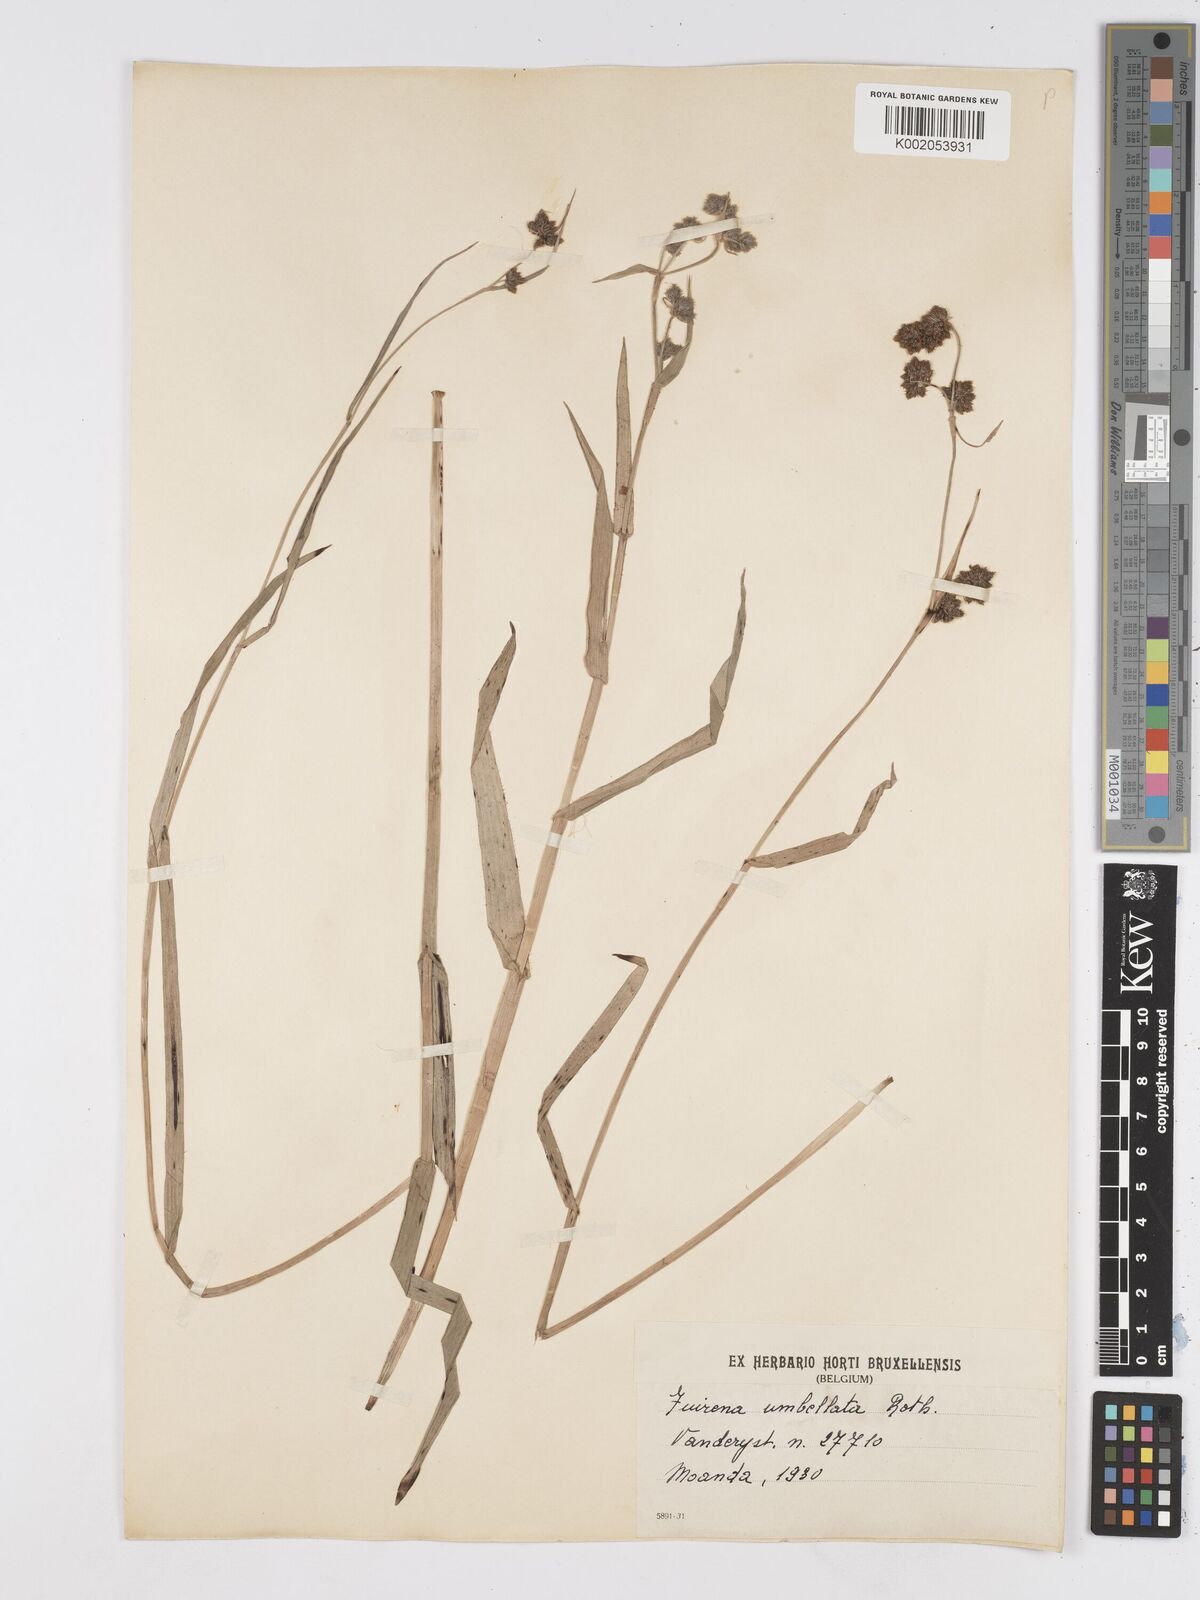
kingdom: Plantae
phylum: Tracheophyta
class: Liliopsida
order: Poales
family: Cyperaceae
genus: Fuirena
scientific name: Fuirena umbellata
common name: Yefen
